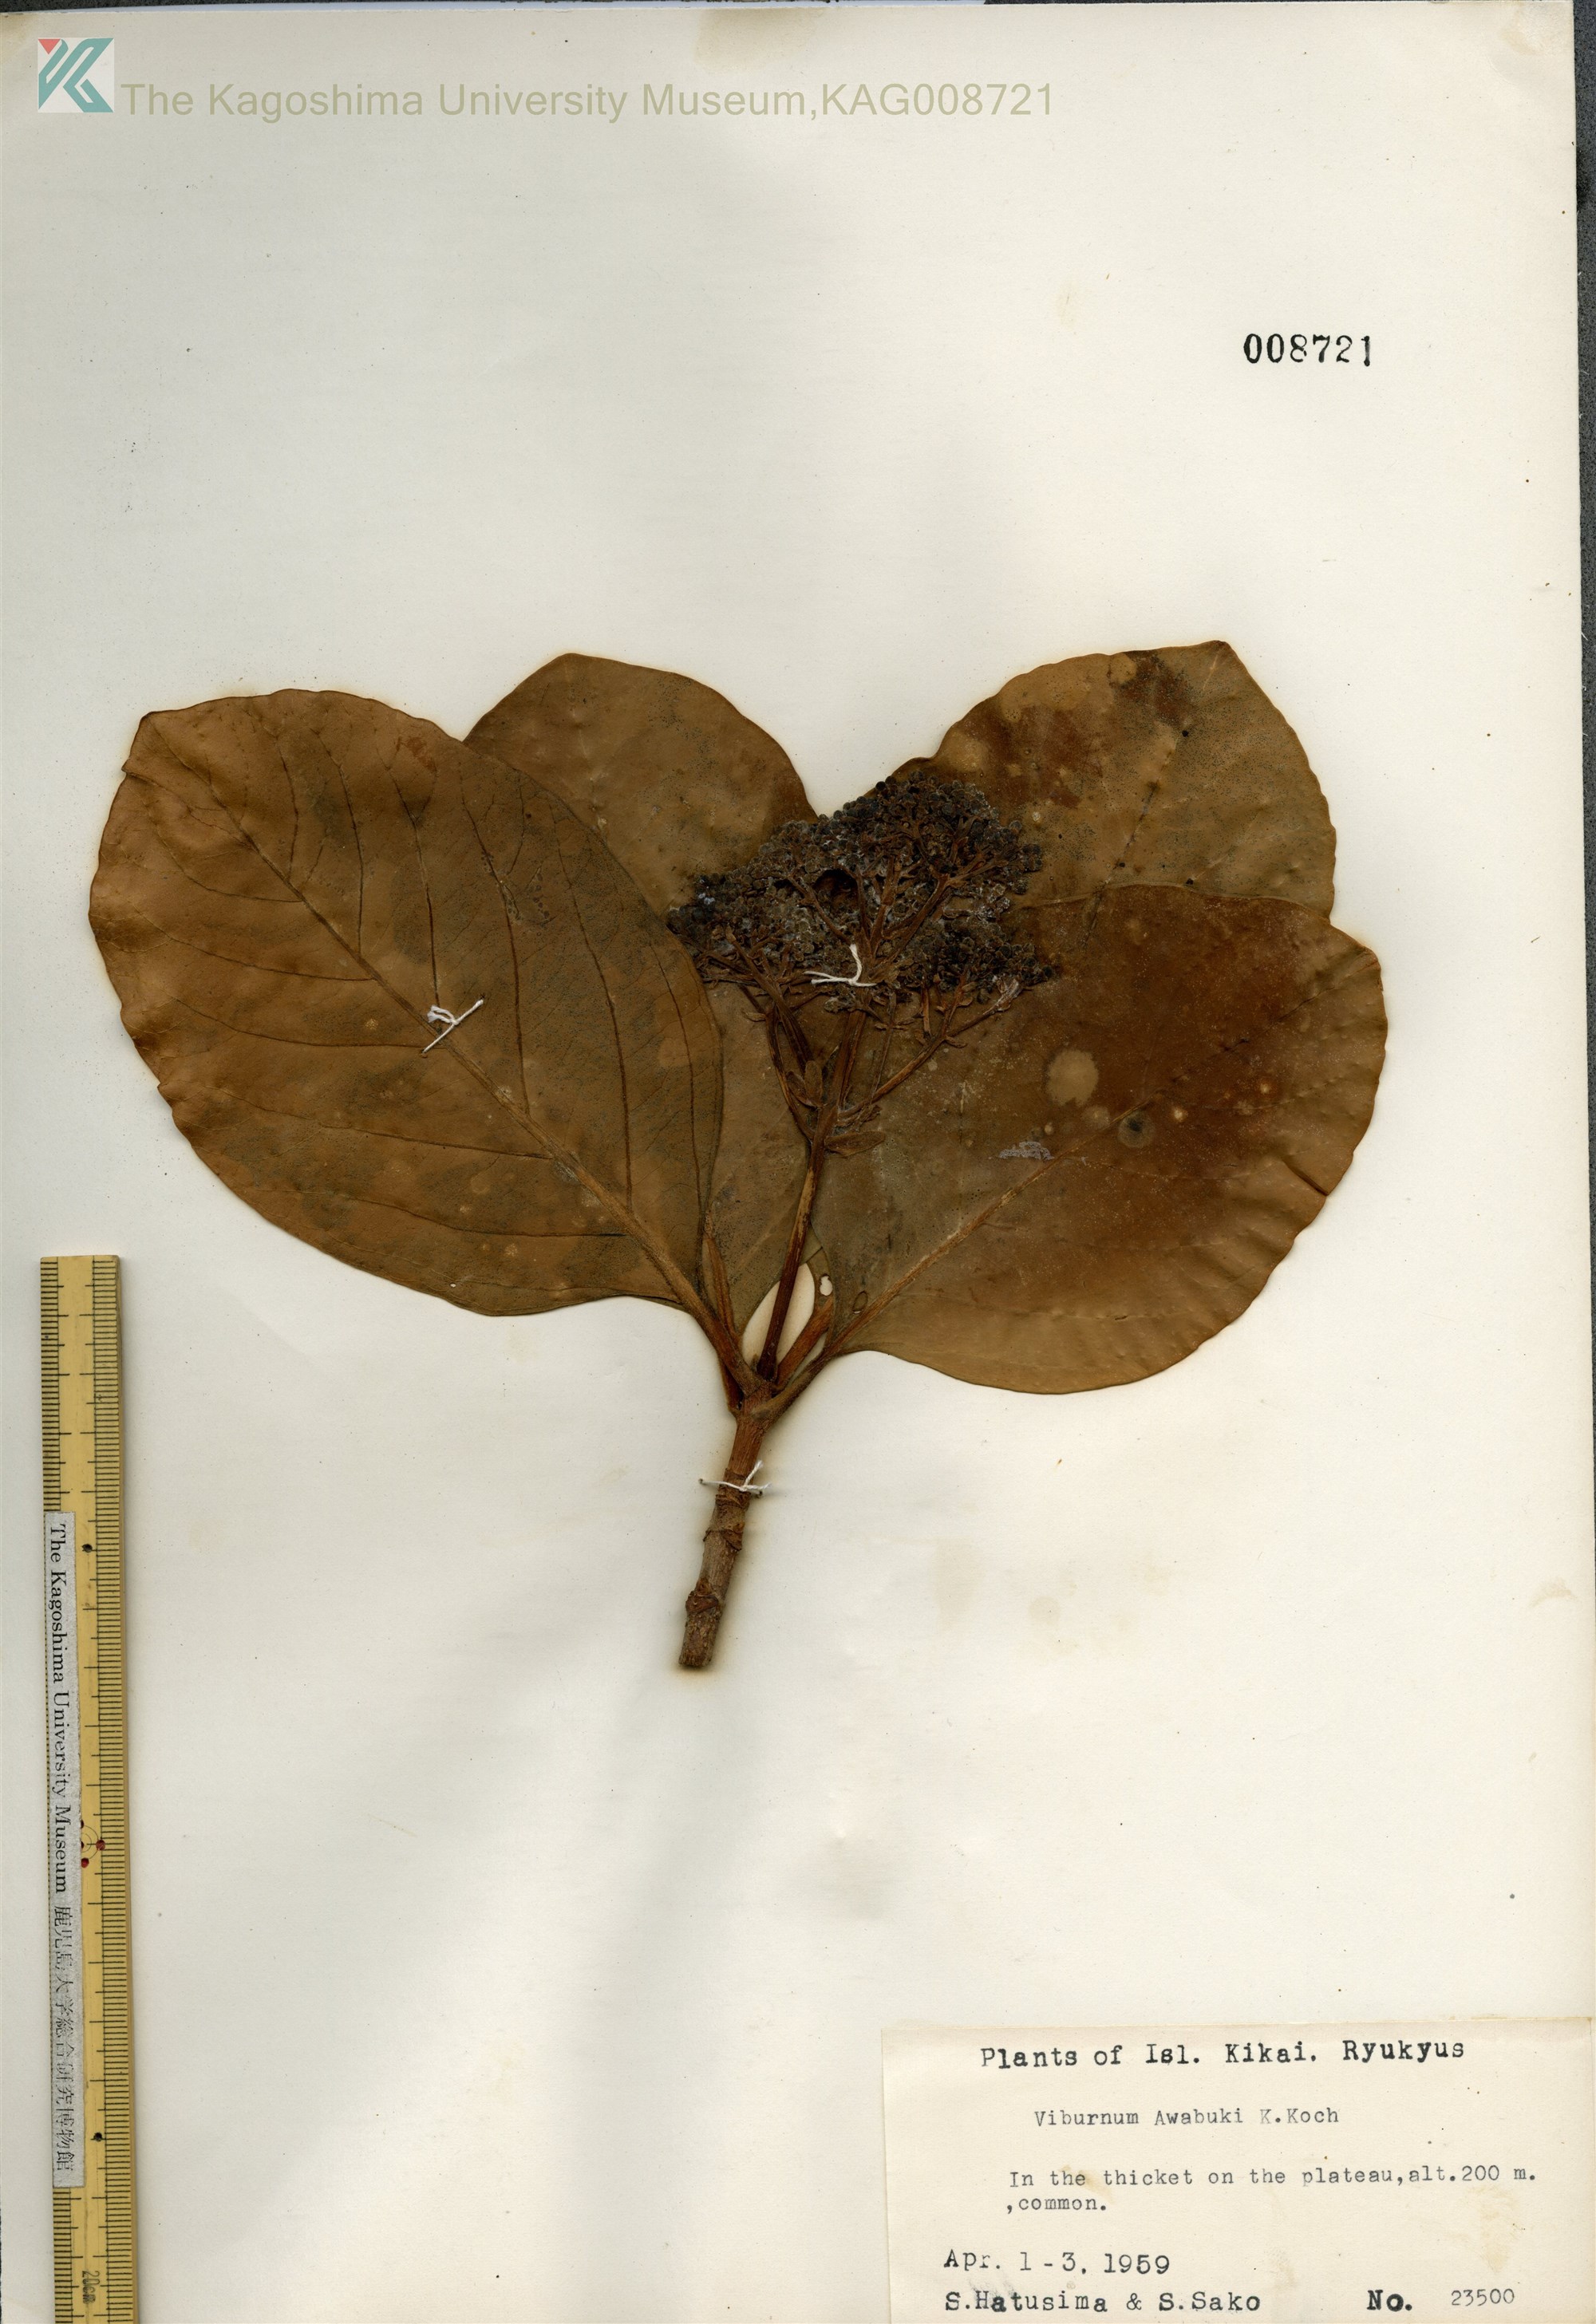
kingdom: Plantae
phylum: Tracheophyta
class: Magnoliopsida
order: Dipsacales
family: Viburnaceae
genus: Viburnum
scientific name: Viburnum odoratissimum
